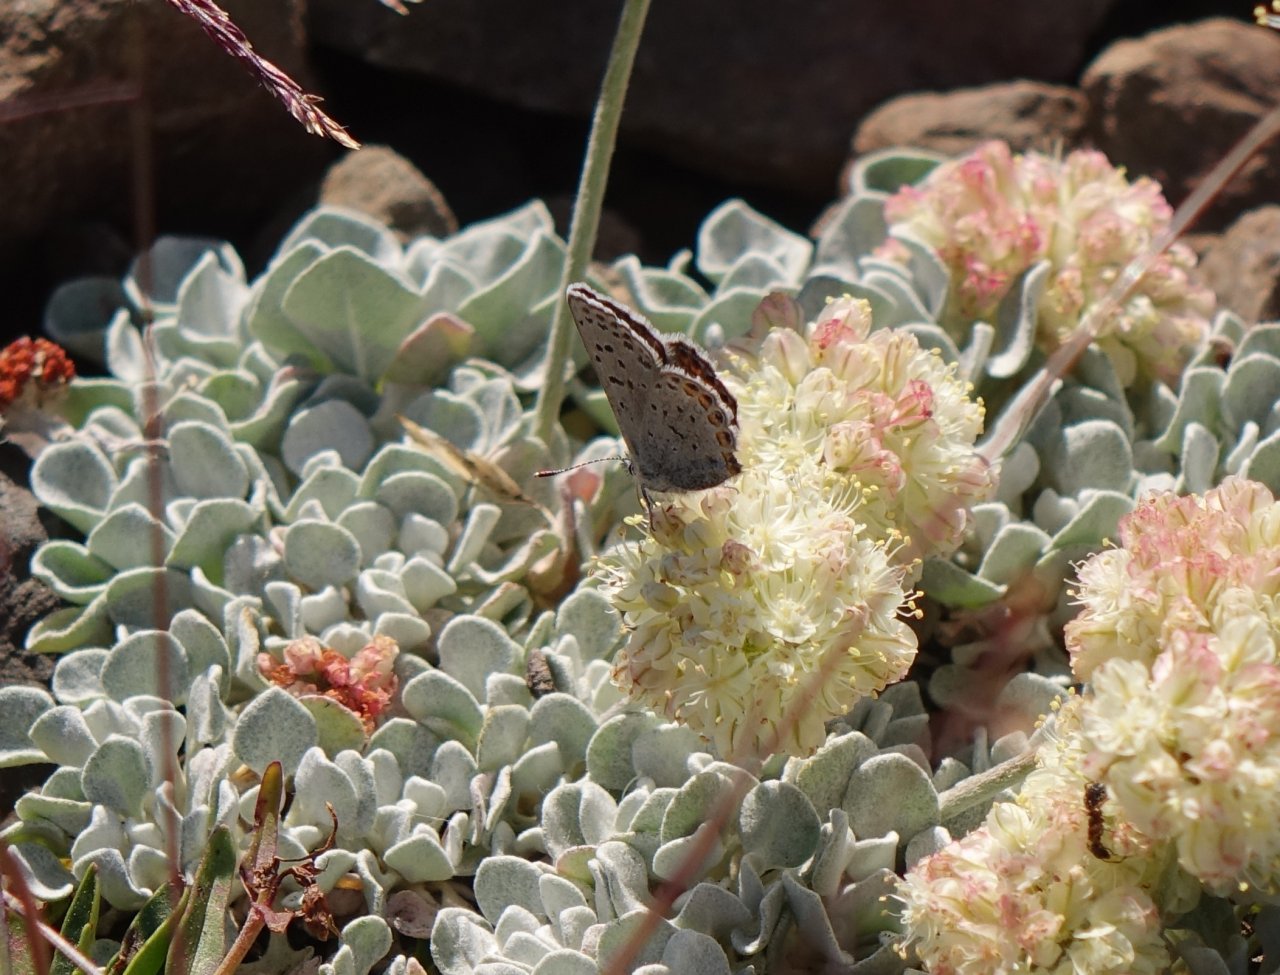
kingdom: Animalia
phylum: Arthropoda
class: Insecta
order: Lepidoptera
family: Lycaenidae
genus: Plebejus
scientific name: Plebejus acmon
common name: Acmon Blue
